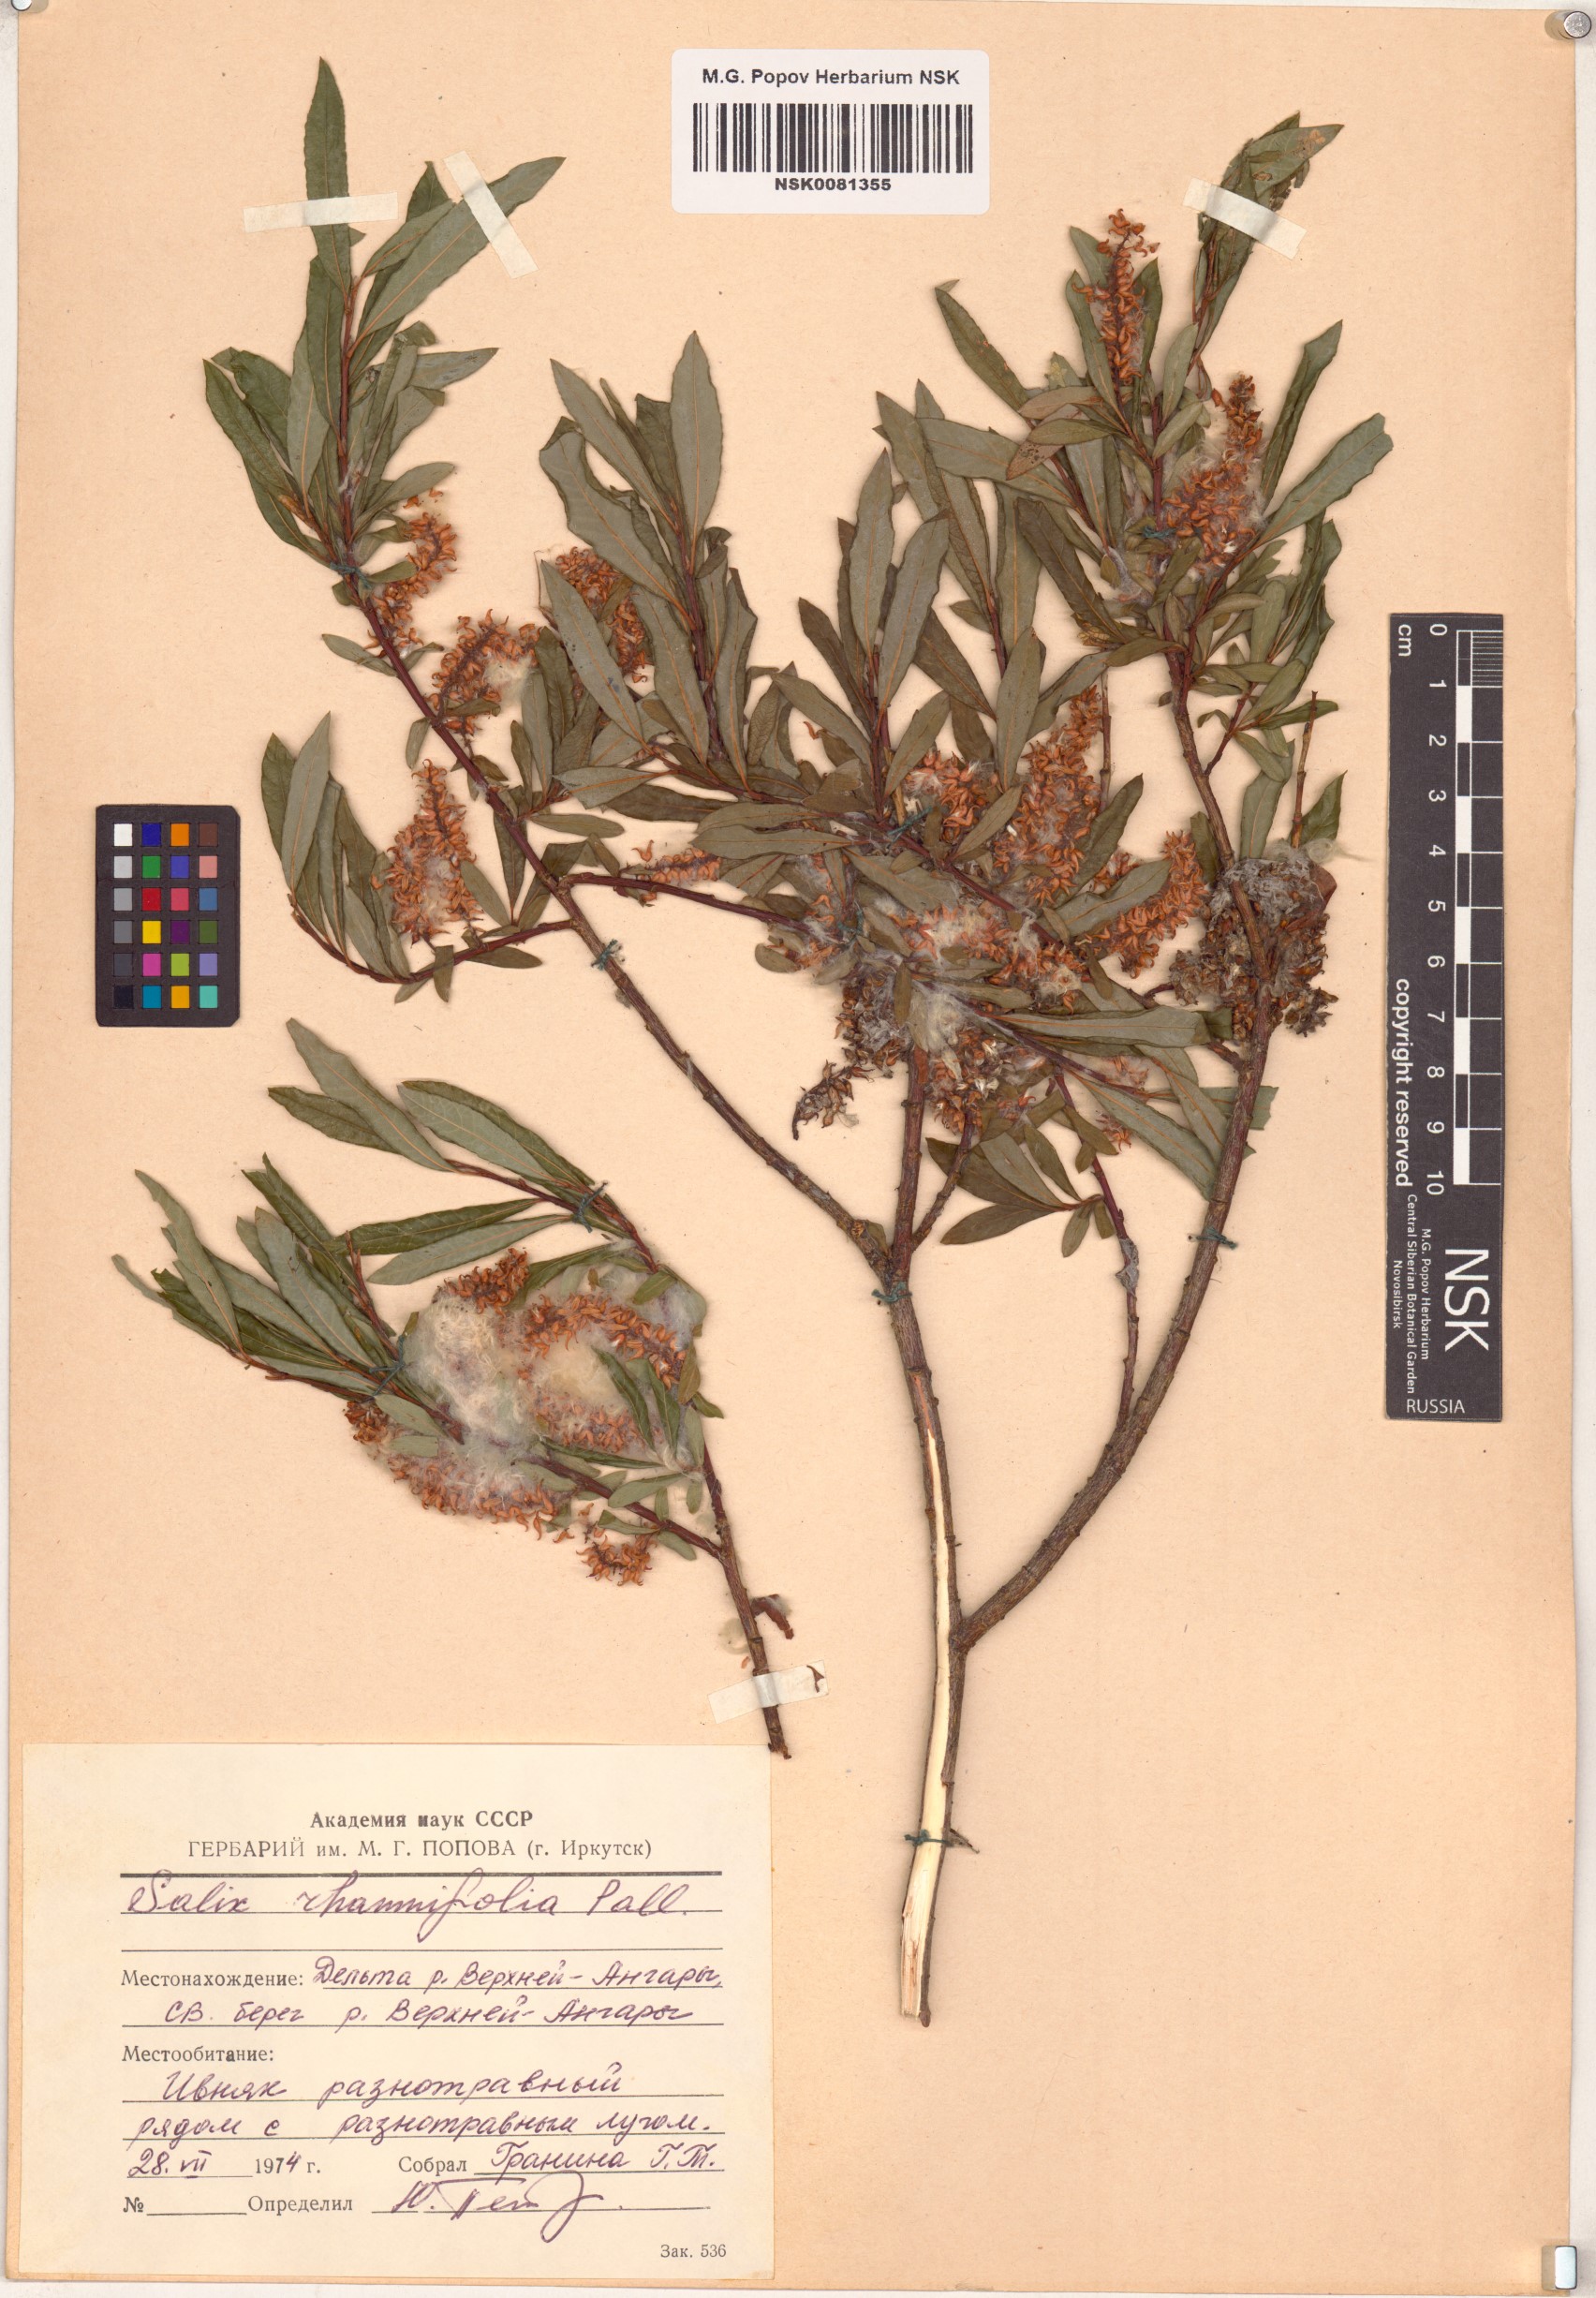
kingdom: Plantae
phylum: Tracheophyta
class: Magnoliopsida
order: Malpighiales
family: Salicaceae
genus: Salix
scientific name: Salix rhamnifolia
